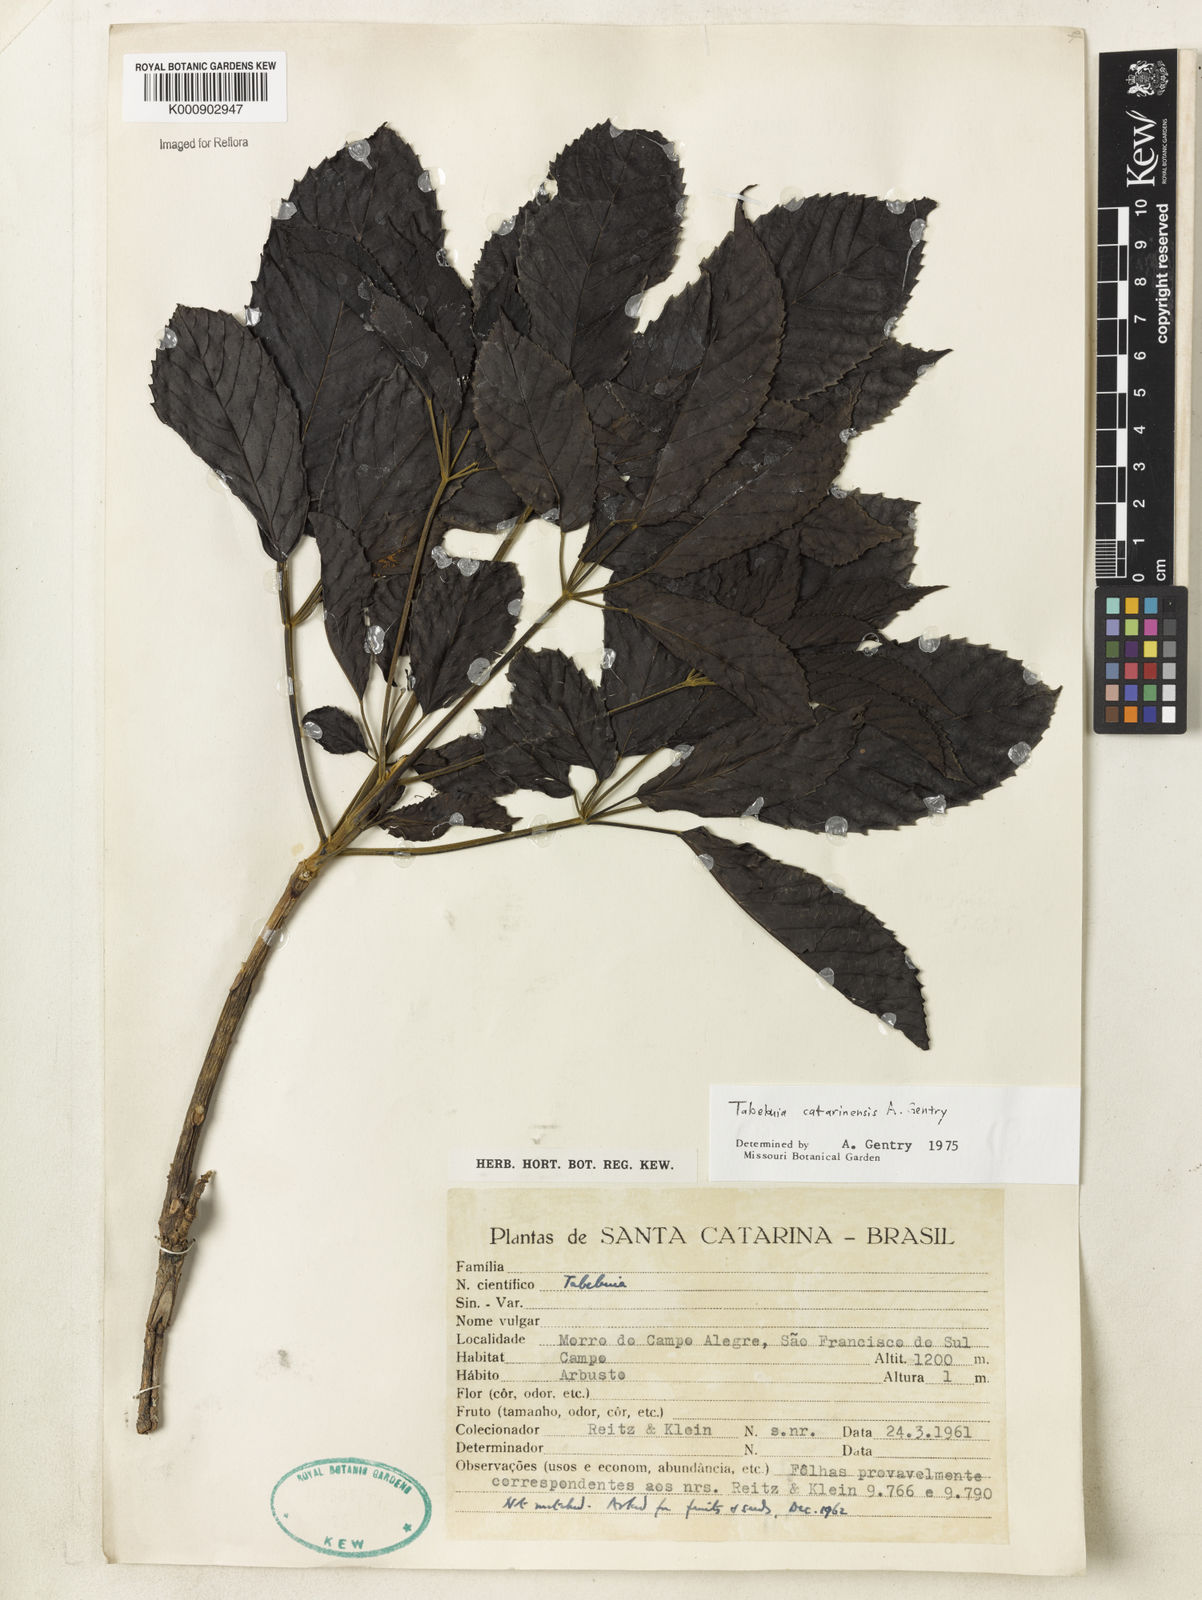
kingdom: Plantae
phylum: Tracheophyta
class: Magnoliopsida
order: Lamiales
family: Bignoniaceae
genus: Handroanthus
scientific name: Handroanthus catarinensis
